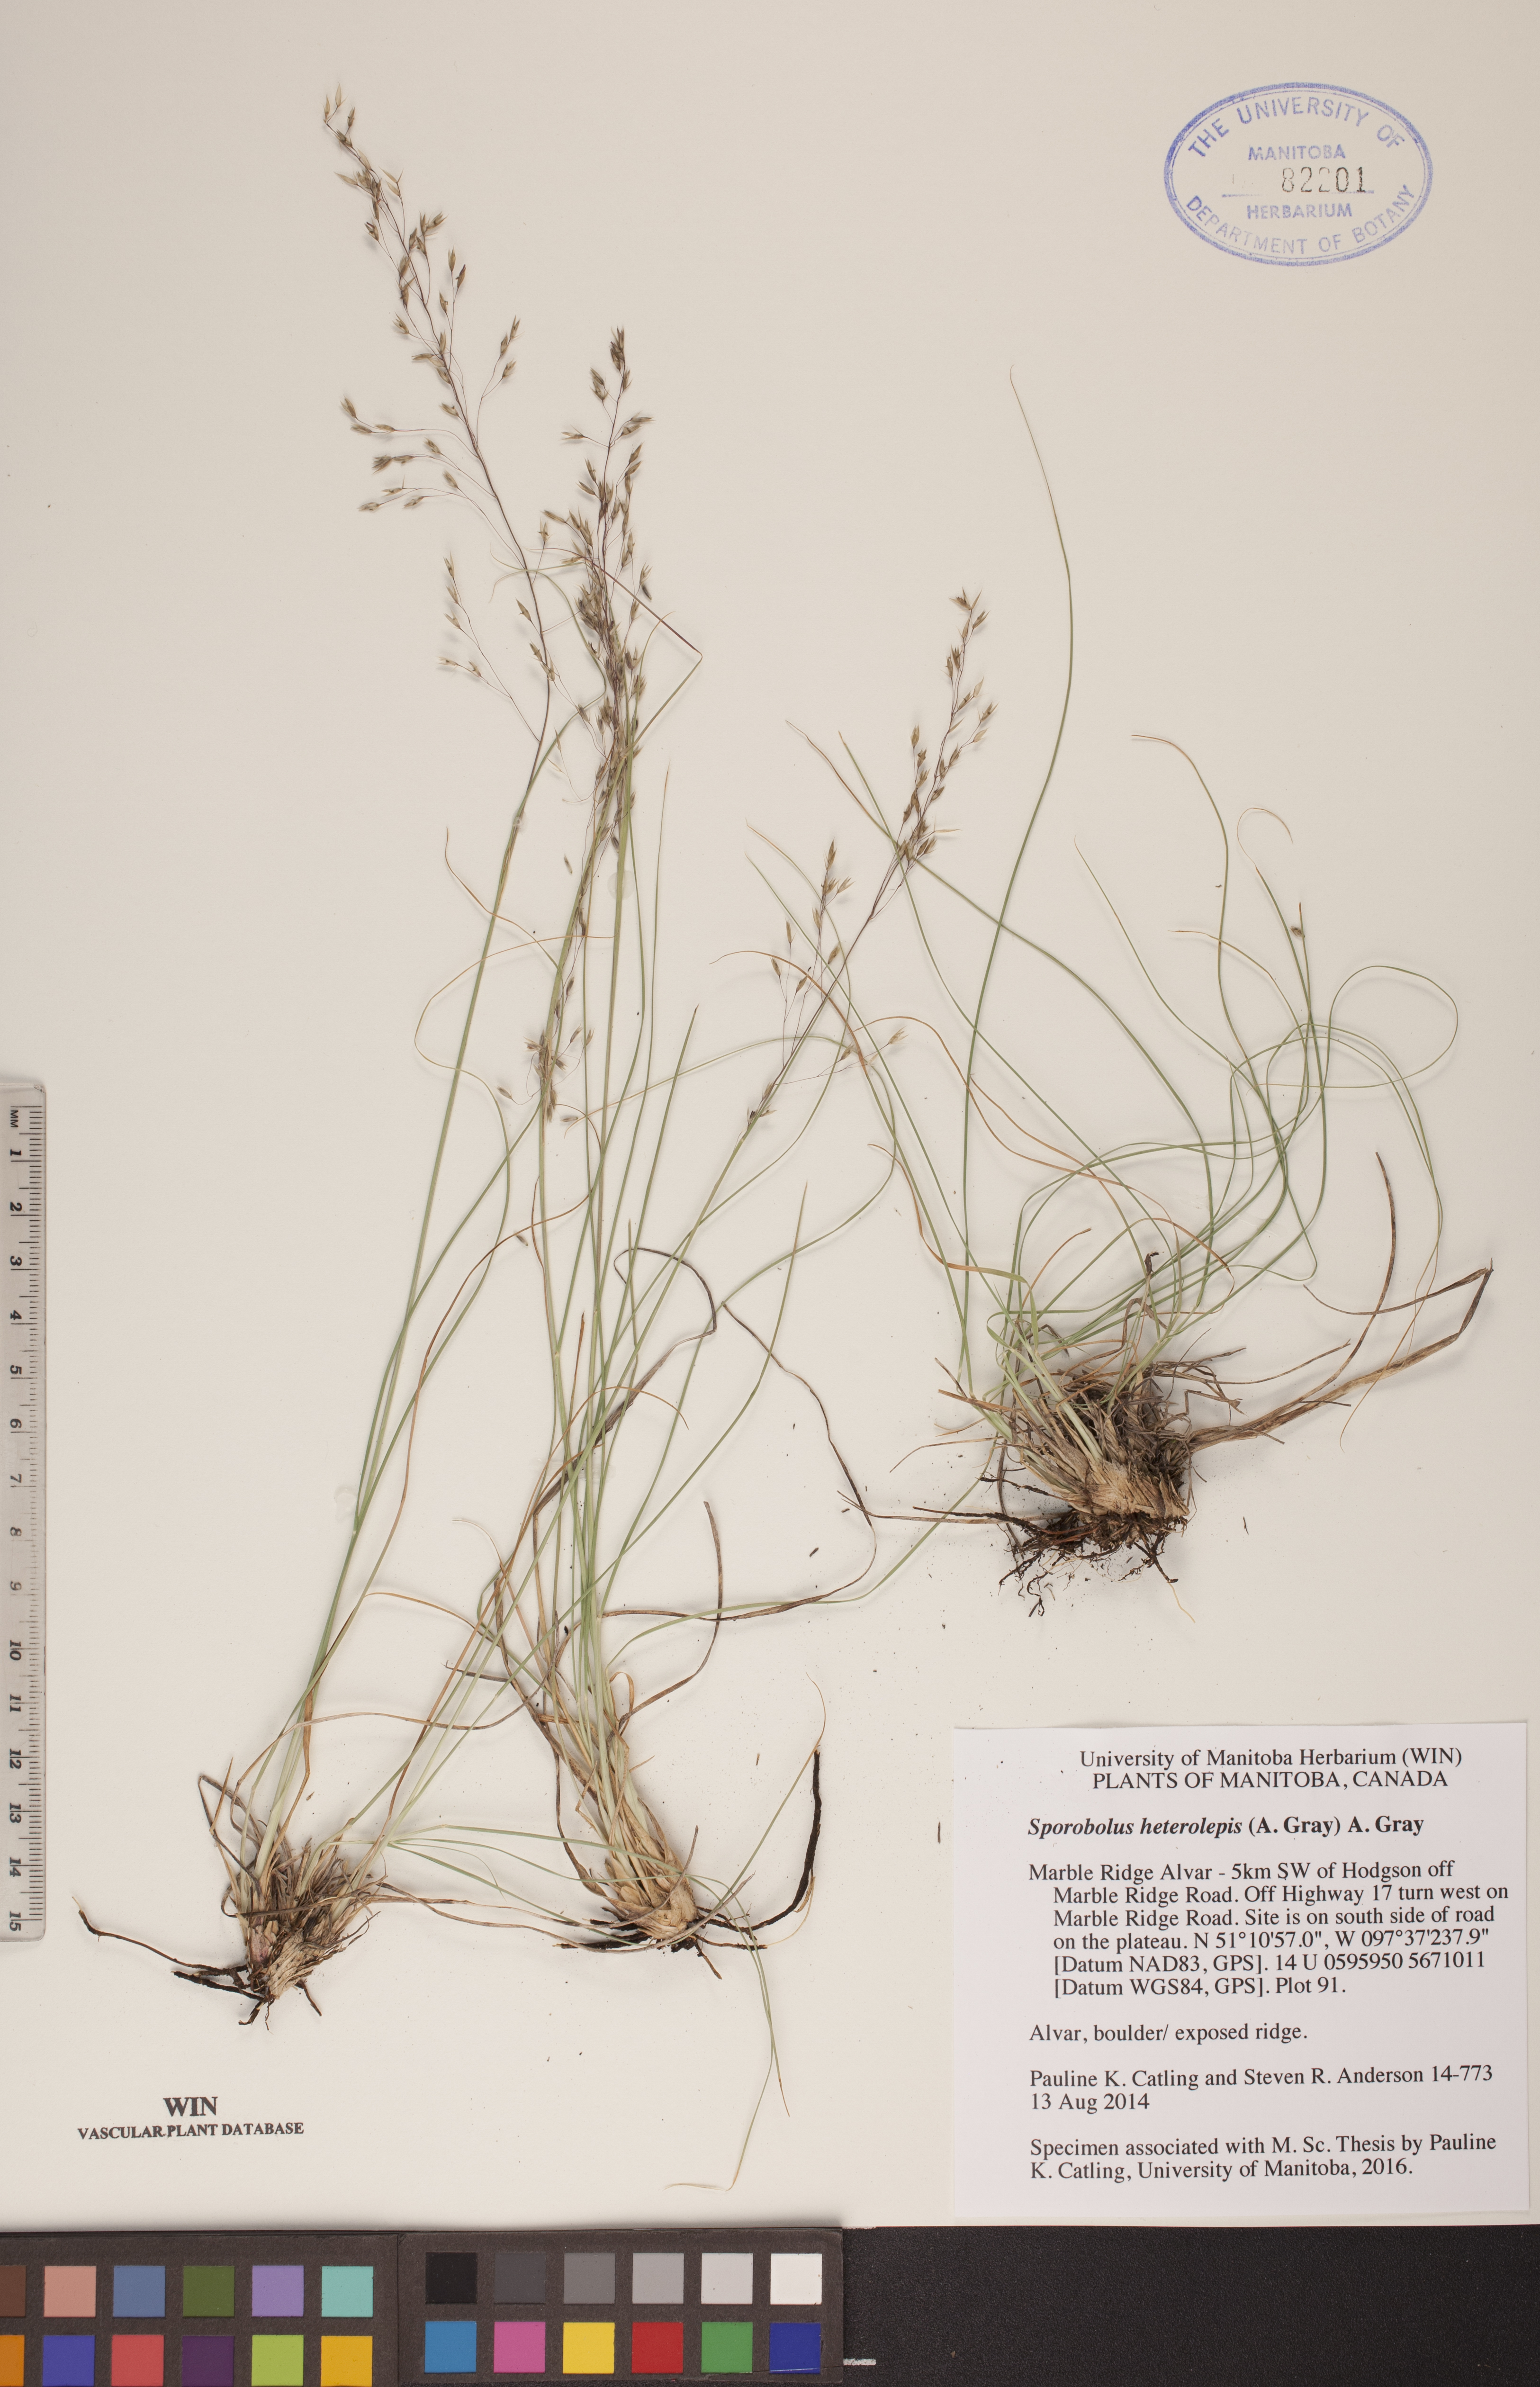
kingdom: Plantae
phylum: Tracheophyta
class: Liliopsida
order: Poales
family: Poaceae
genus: Sporobolus
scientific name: Sporobolus heterolepis
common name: Prairie dropseed
